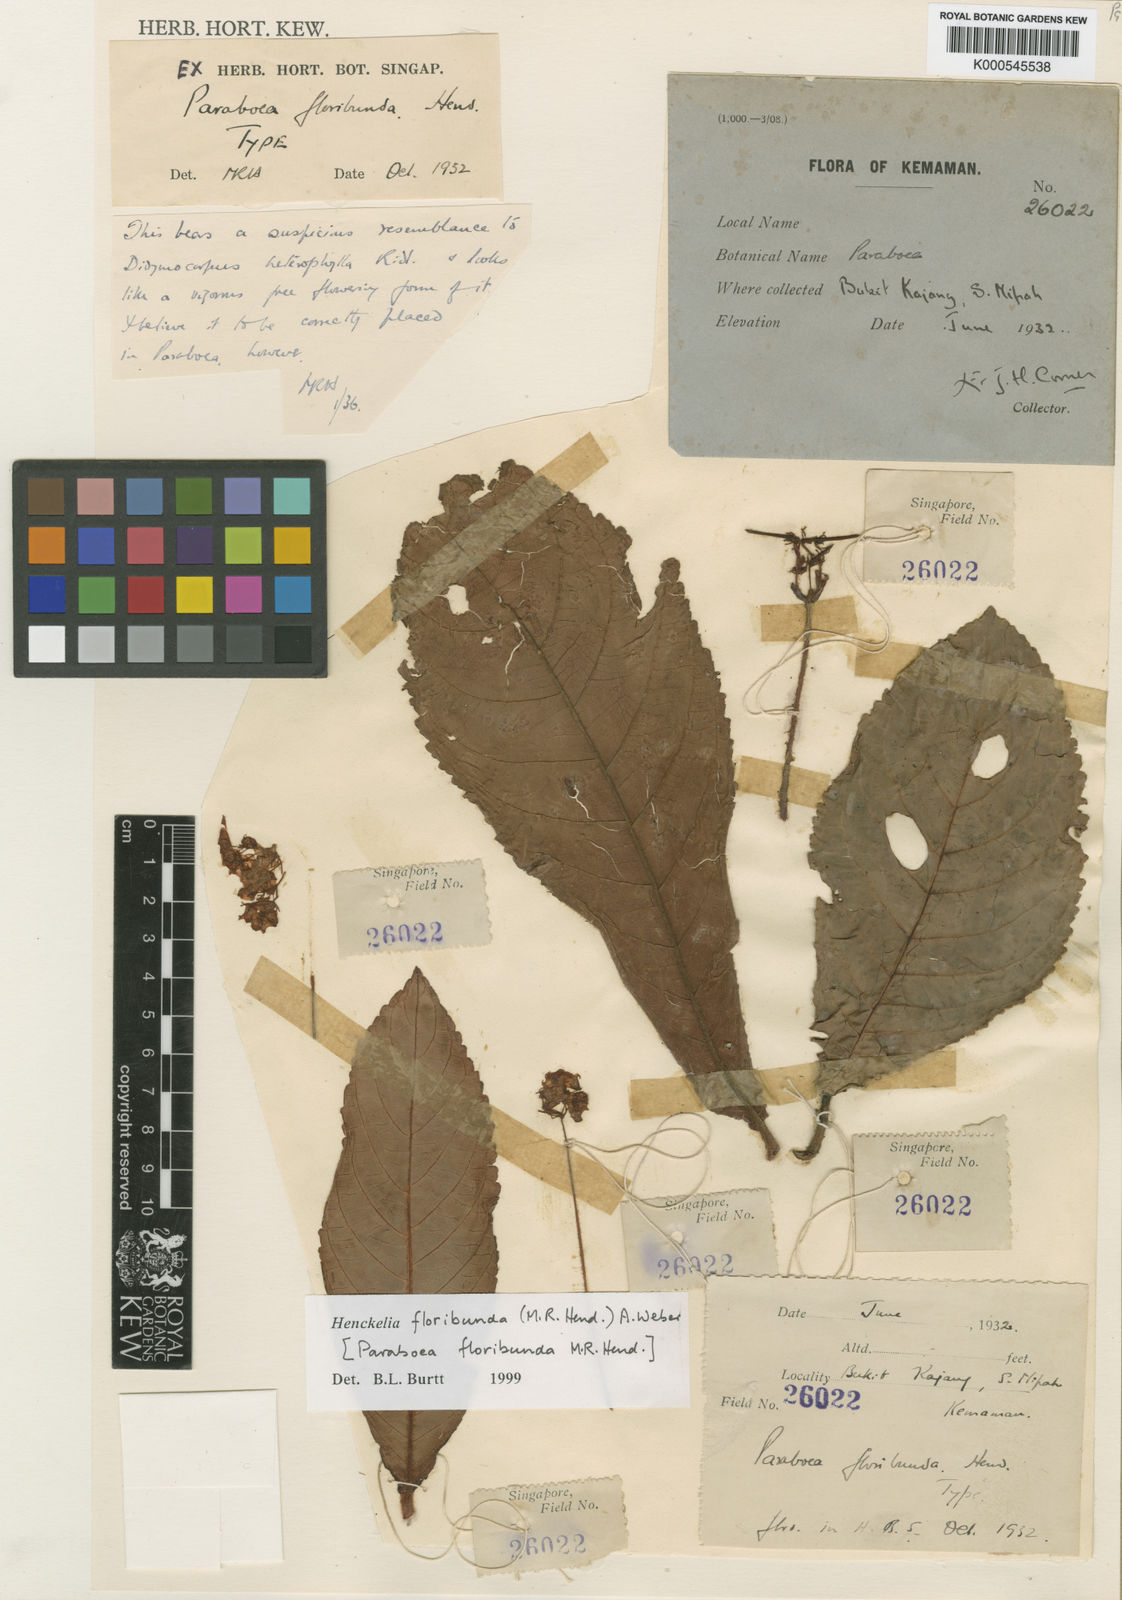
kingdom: Plantae
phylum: Tracheophyta
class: Magnoliopsida
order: Lamiales
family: Gesneriaceae
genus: Codonoboea
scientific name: Codonoboea floribunda
